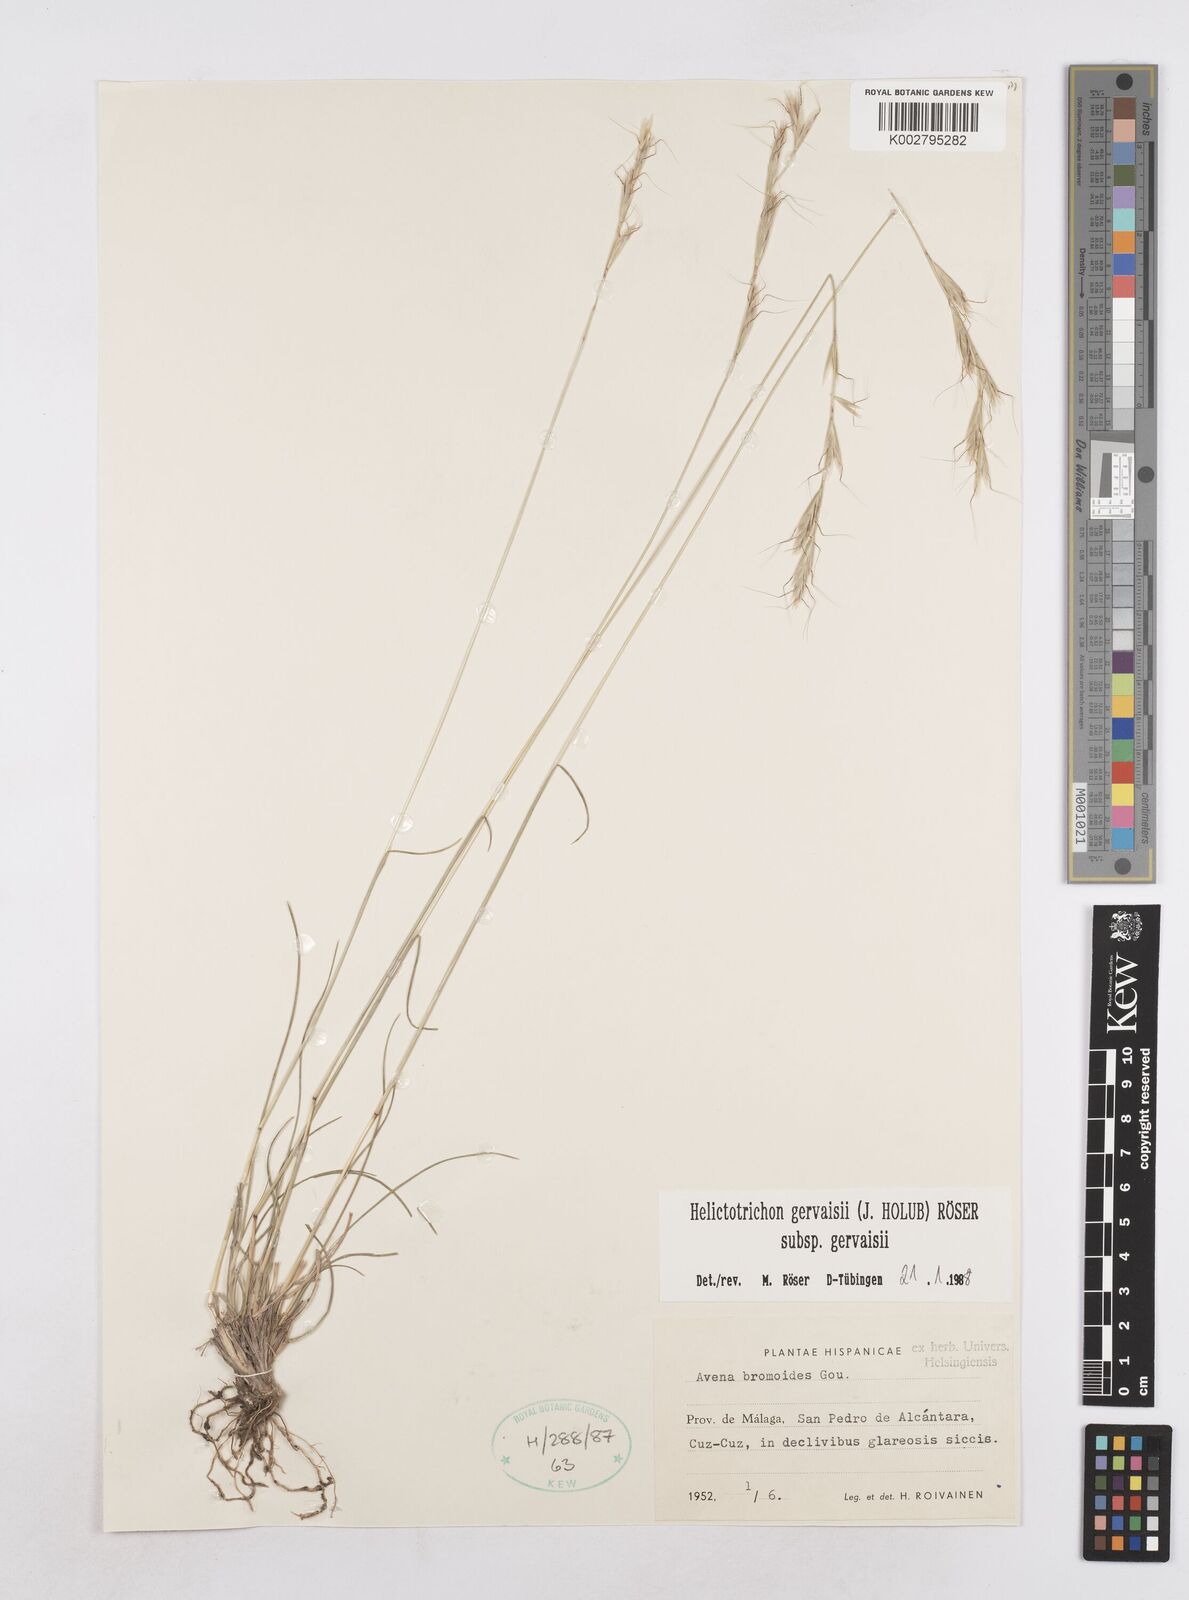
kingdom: Plantae
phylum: Tracheophyta
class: Liliopsida
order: Poales
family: Poaceae
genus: Helictochloa
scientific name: Helictochloa gervaisii
